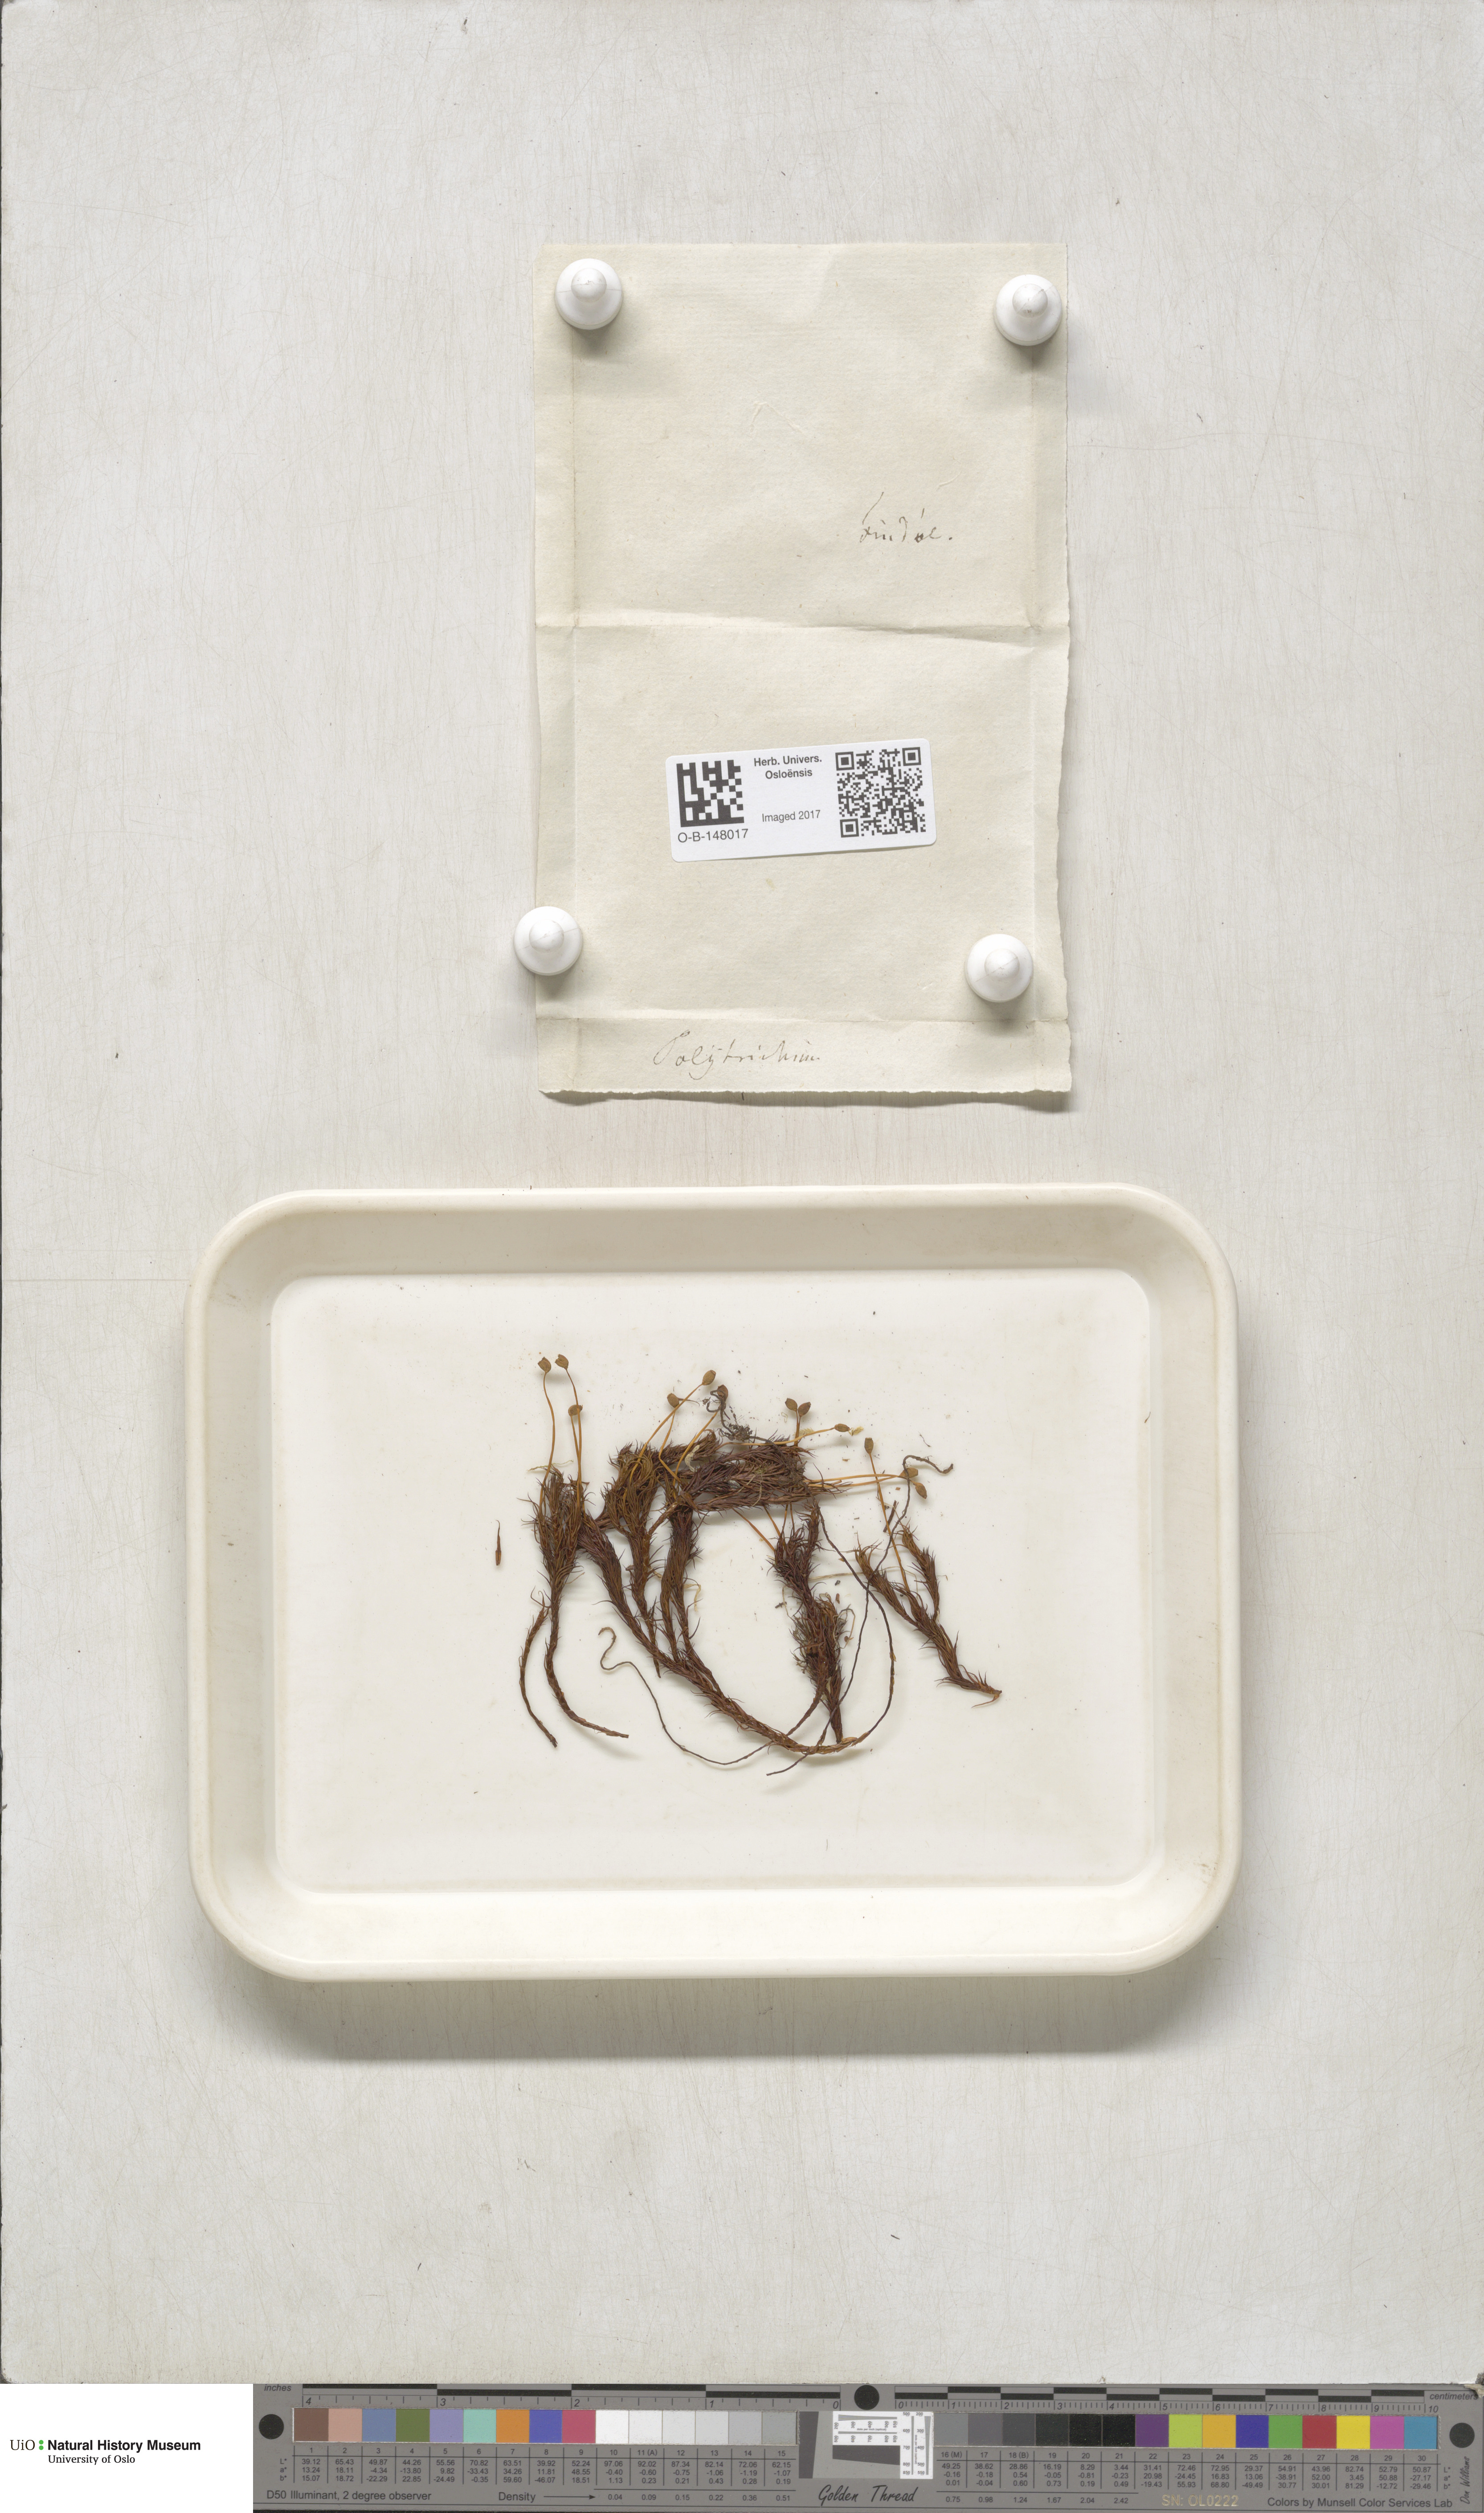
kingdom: Plantae
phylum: Bryophyta
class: Polytrichopsida
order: Polytrichales
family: Polytrichaceae
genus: Polytrichastrum
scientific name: Polytrichastrum alpinum
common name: Alpine haircap
